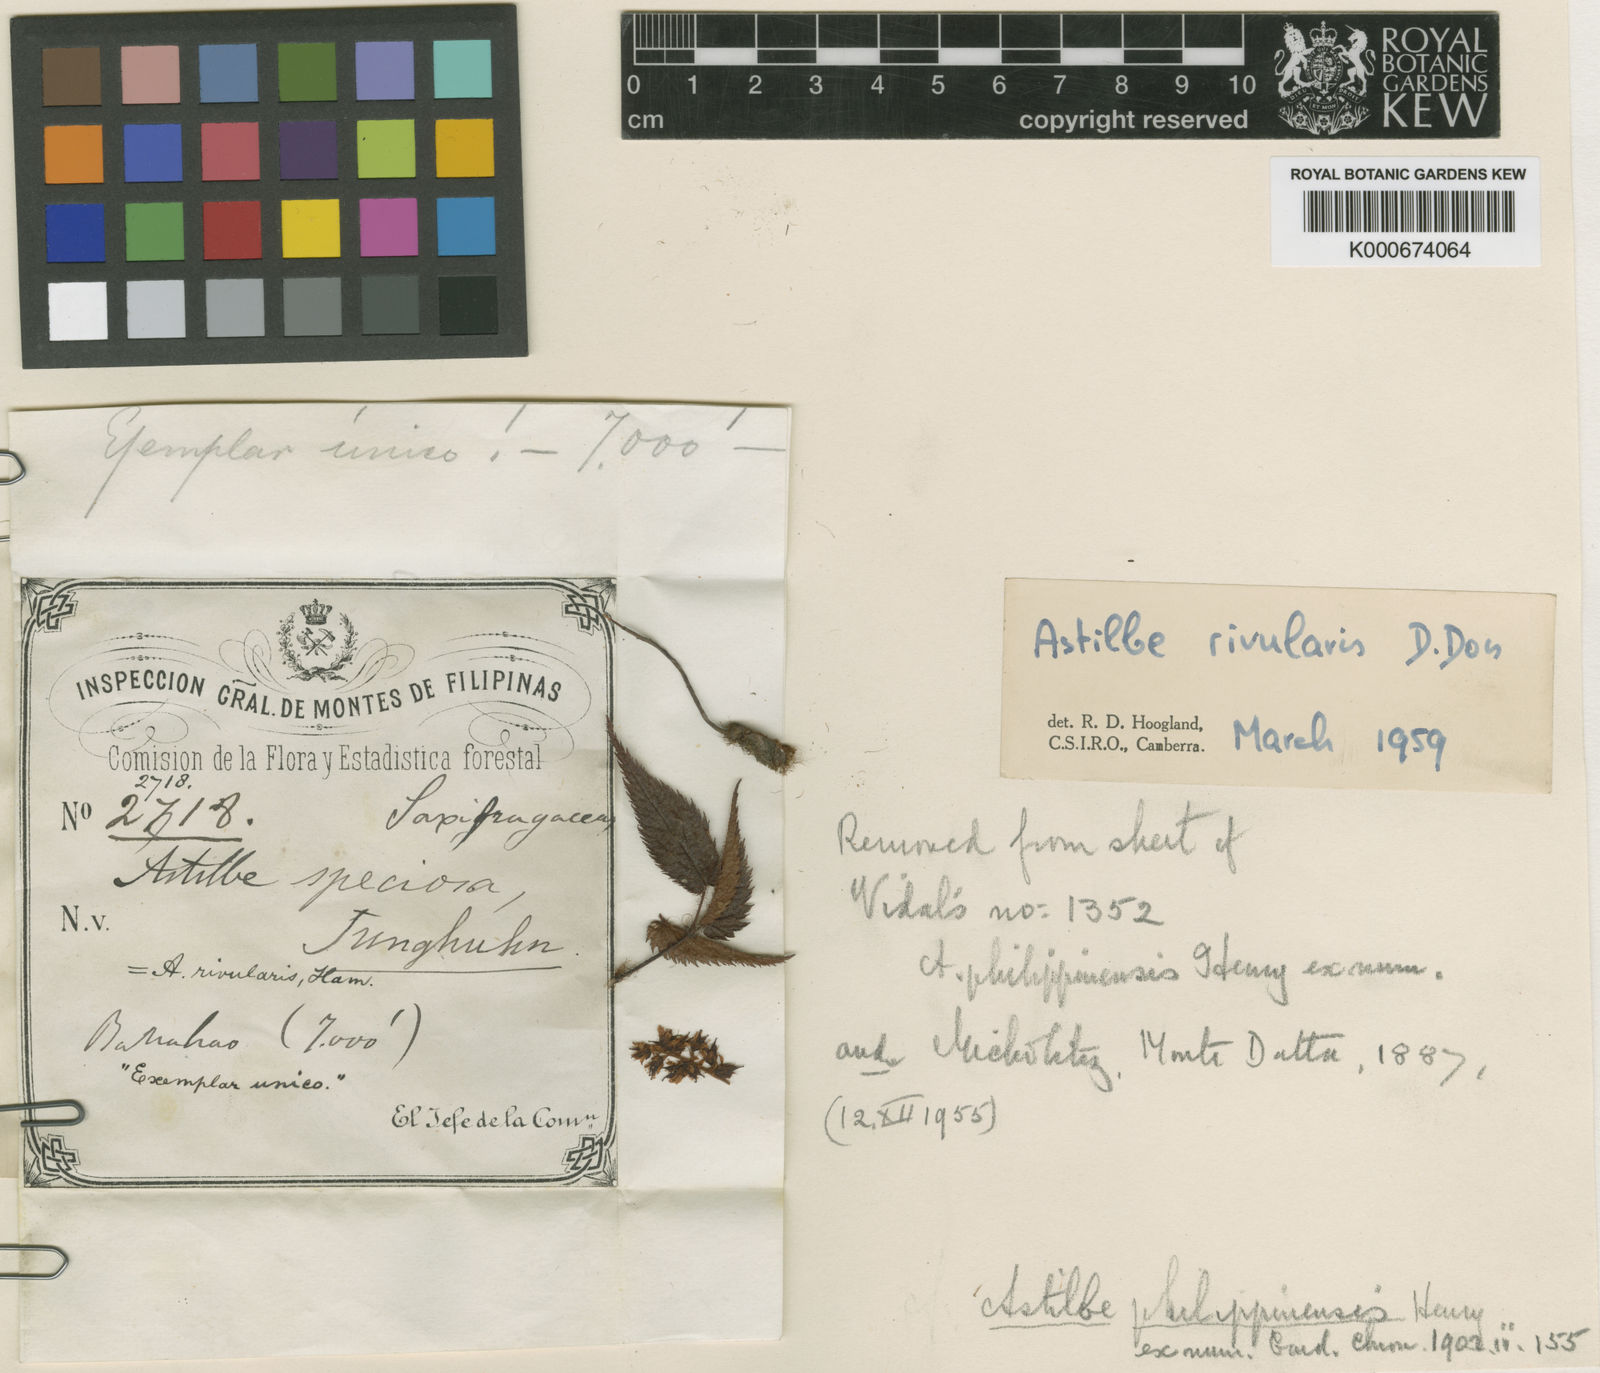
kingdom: Plantae
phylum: Tracheophyta
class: Magnoliopsida
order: Saxifragales
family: Saxifragaceae
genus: Astilbe
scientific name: Astilbe philippinensis
